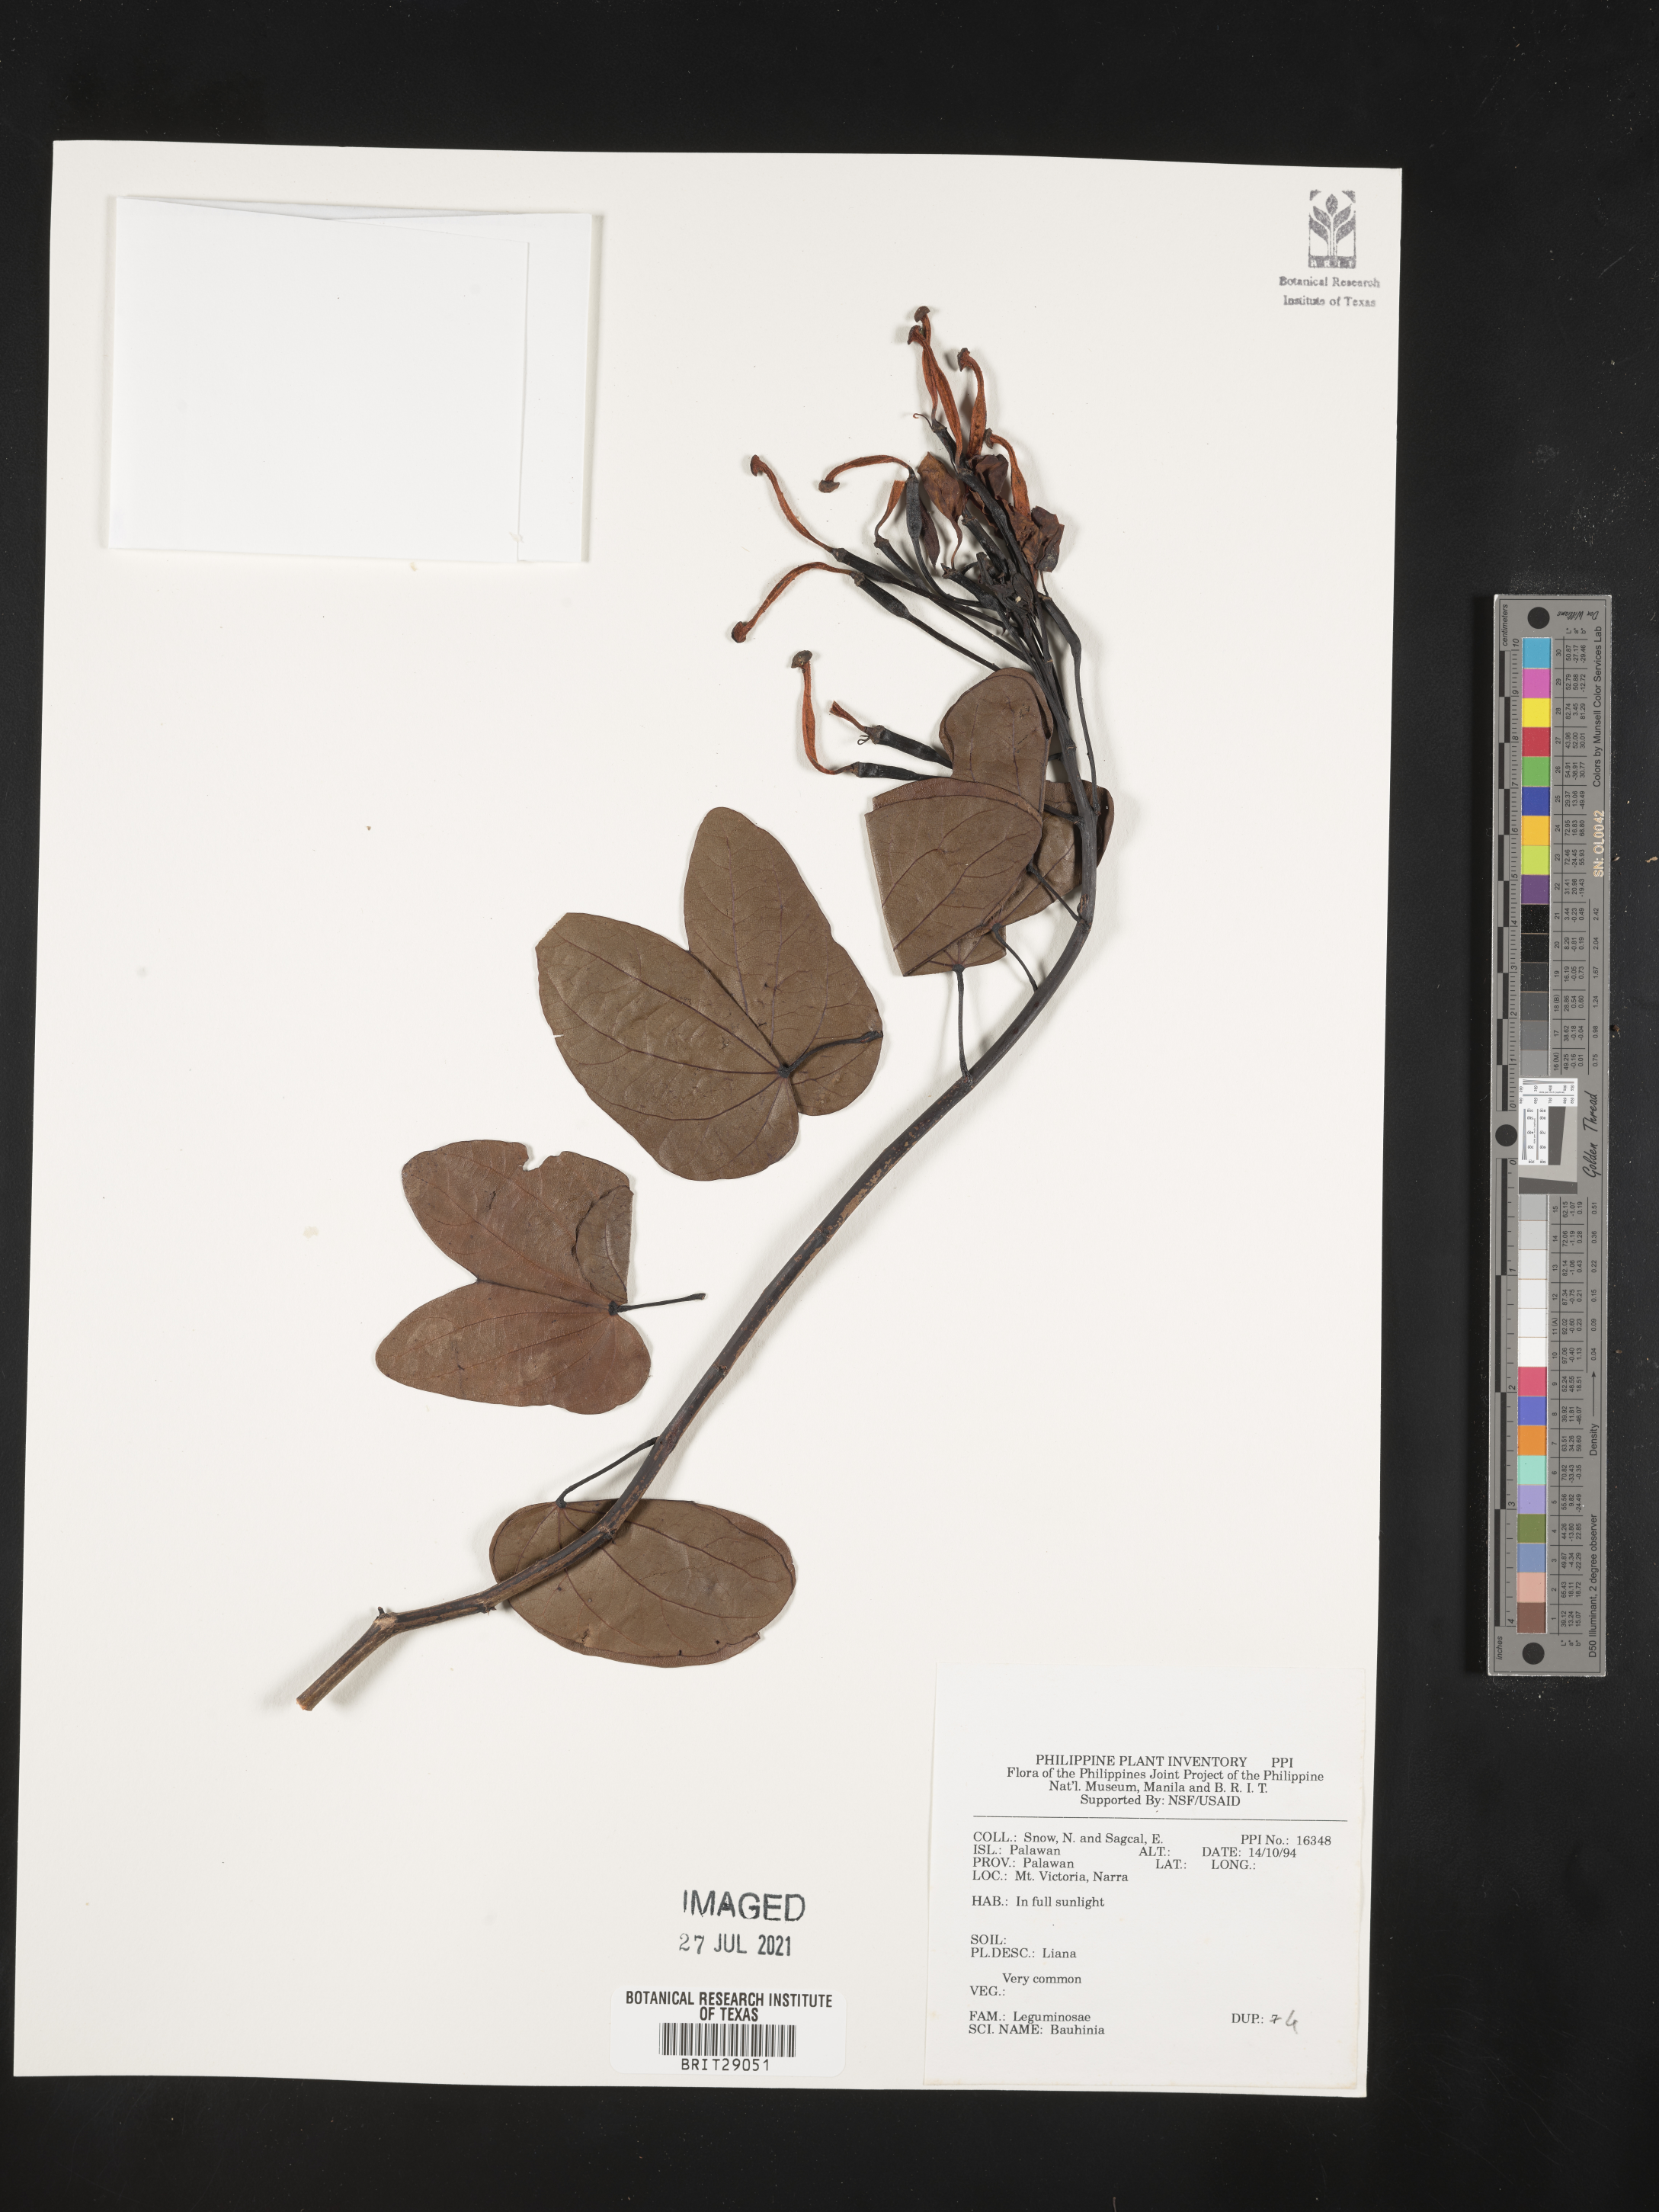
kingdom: Plantae
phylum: Tracheophyta
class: Magnoliopsida
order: Fabales
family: Fabaceae
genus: Bauhinia
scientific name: Bauhinia
